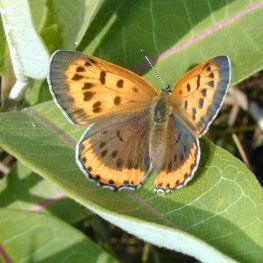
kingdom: Animalia
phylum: Arthropoda
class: Insecta
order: Lepidoptera
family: Sesiidae
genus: Sesia
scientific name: Sesia Lycaena hyllus
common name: Bronze Copper
